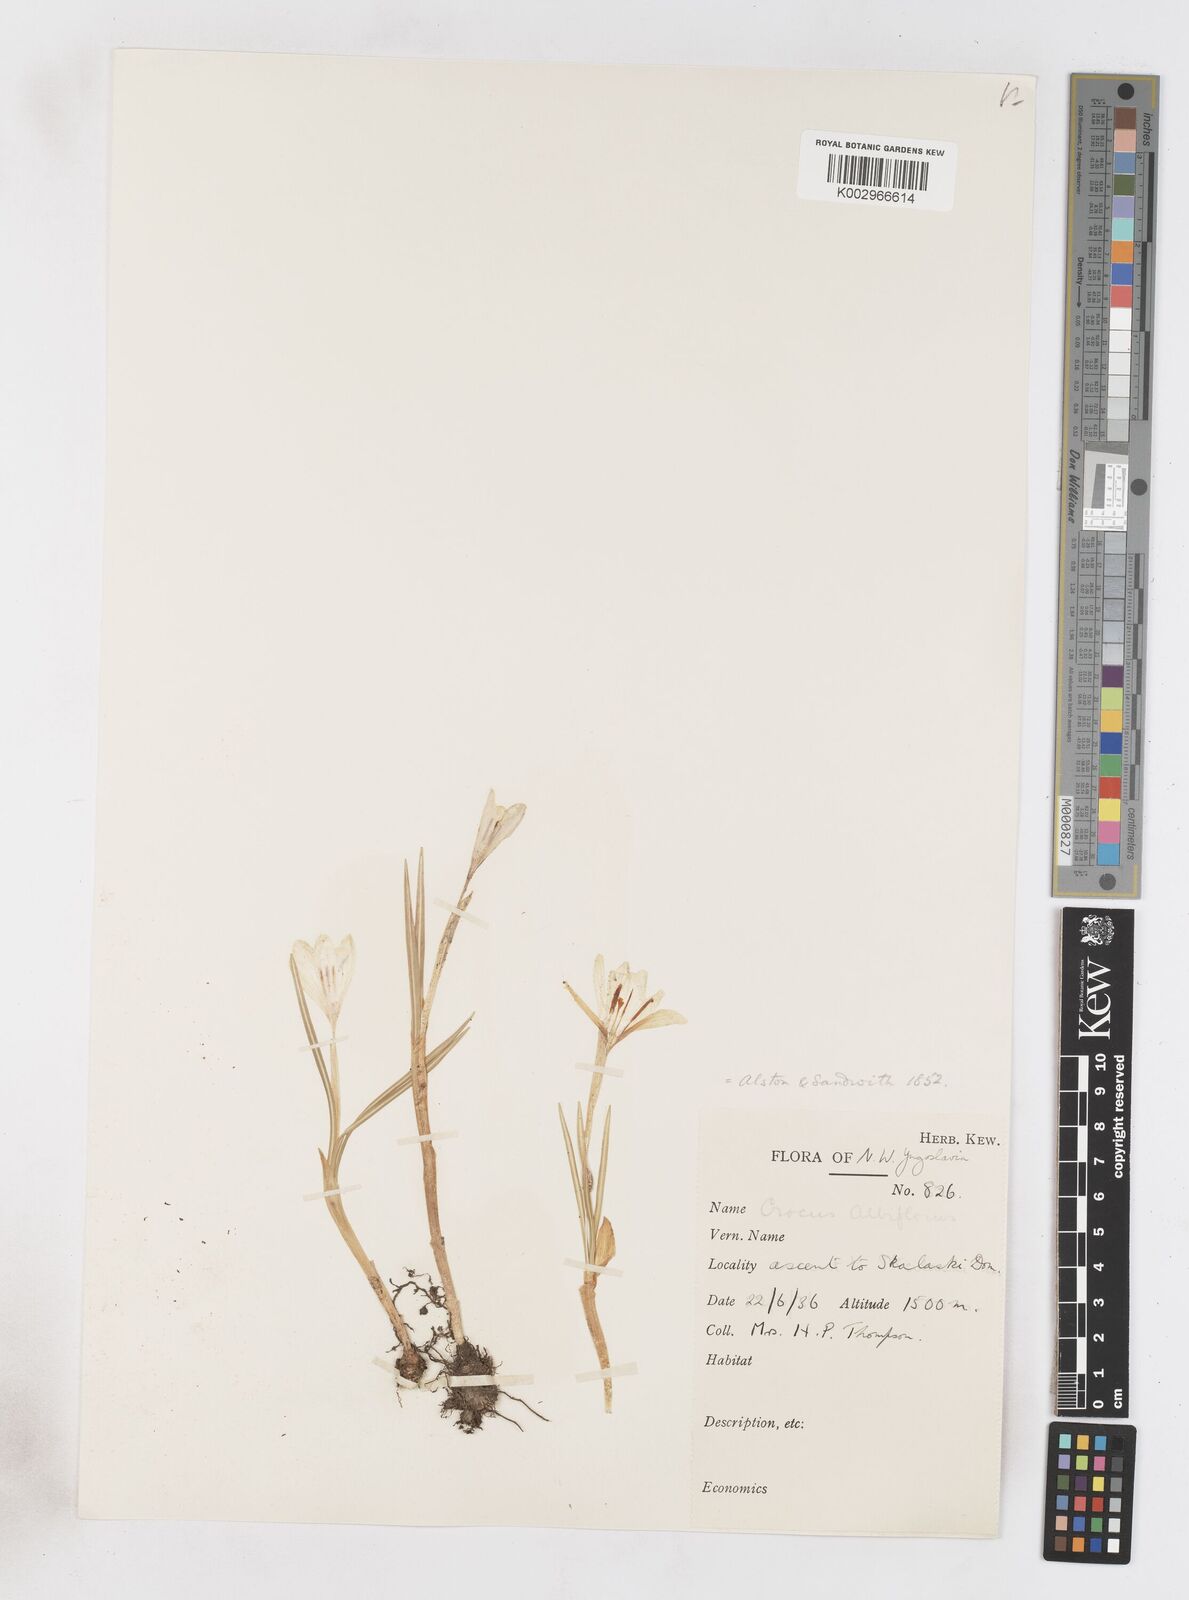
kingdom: Plantae
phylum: Tracheophyta
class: Liliopsida
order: Asparagales
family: Iridaceae
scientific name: Iridaceae
